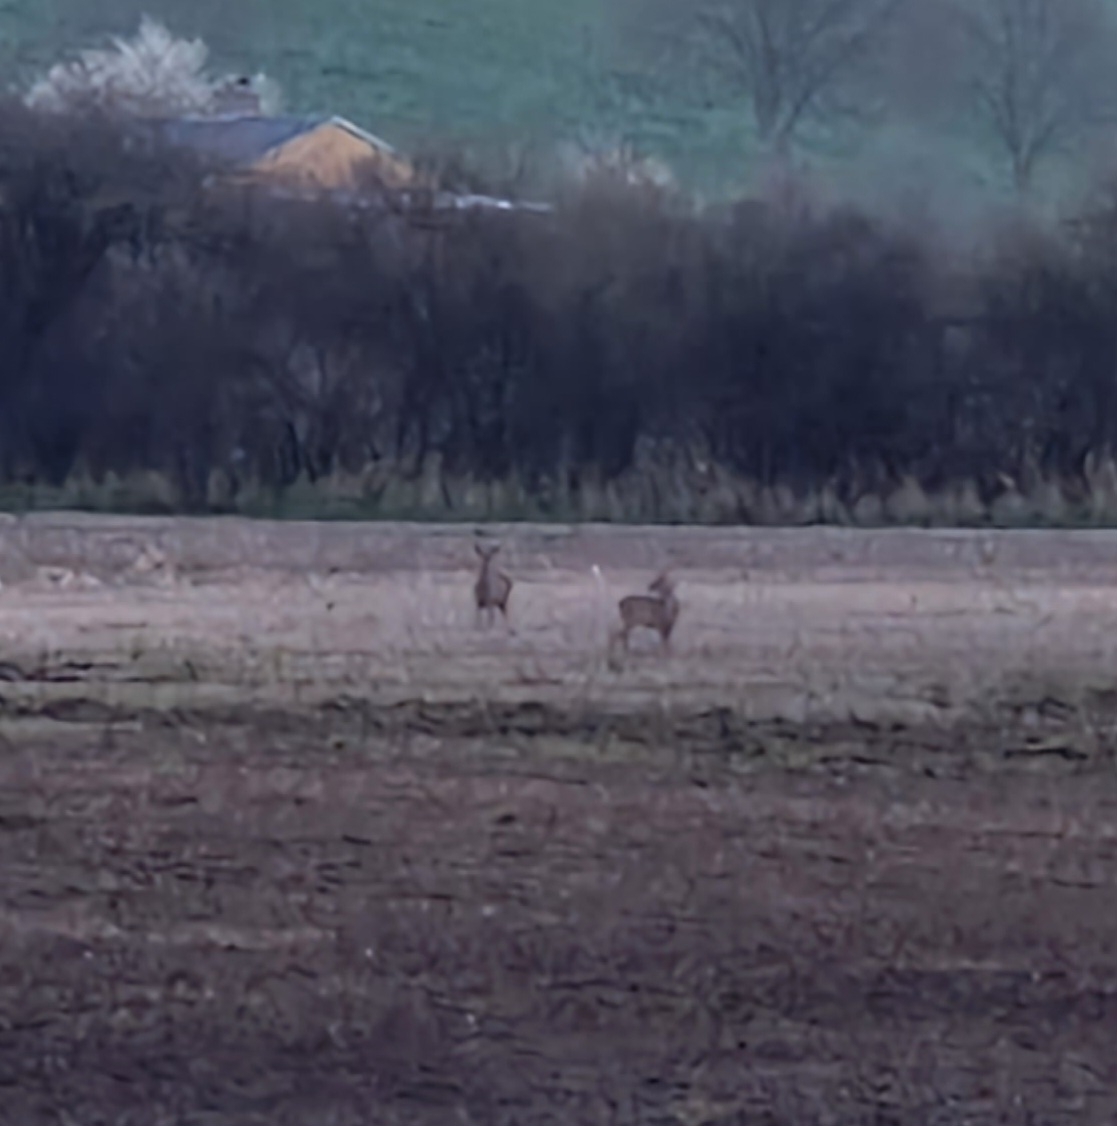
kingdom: Animalia
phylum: Chordata
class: Mammalia
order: Artiodactyla
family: Cervidae
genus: Capreolus
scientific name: Capreolus capreolus
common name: Rådyr
